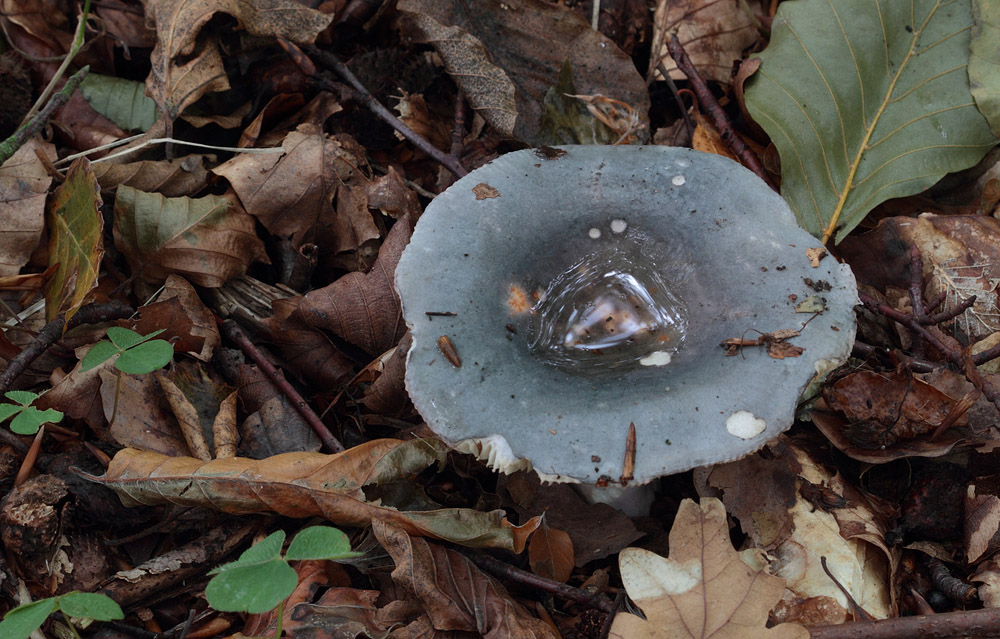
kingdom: Fungi
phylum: Basidiomycota
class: Agaricomycetes
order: Russulales
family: Russulaceae
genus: Russula
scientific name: Russula ionochlora
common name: violetgrøn skørhat
